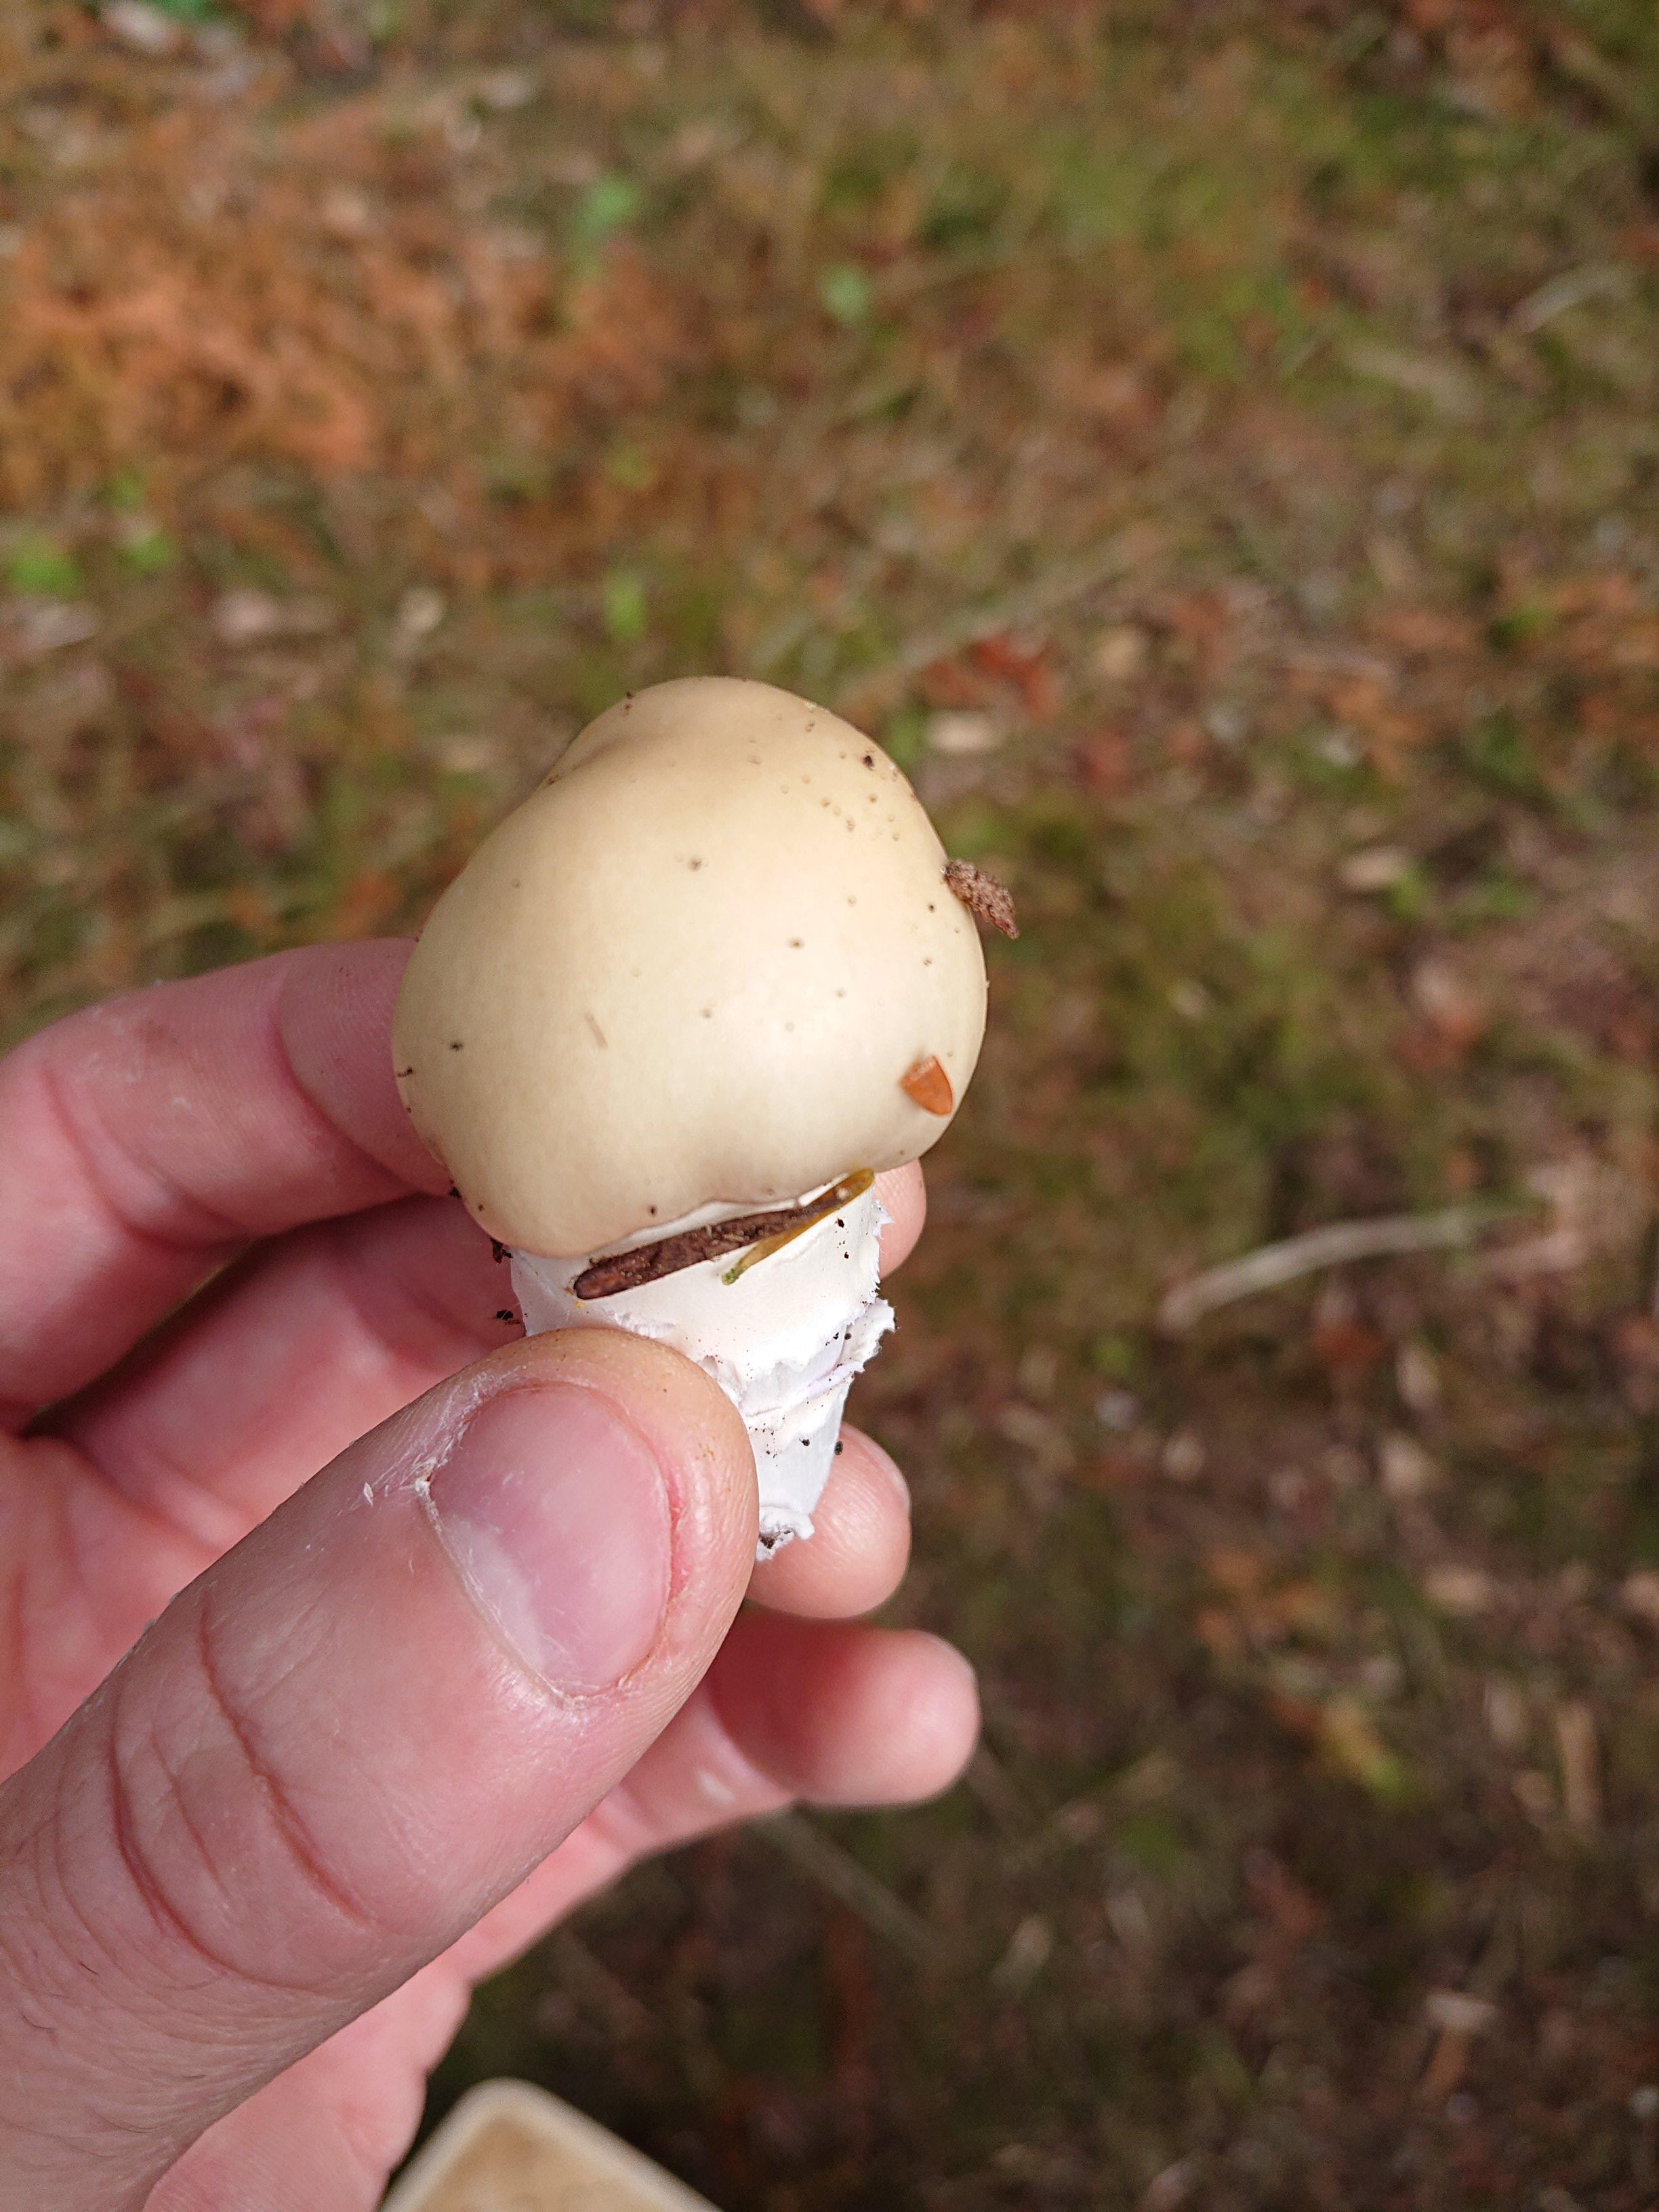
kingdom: Fungi
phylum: Basidiomycota
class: Agaricomycetes
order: Agaricales
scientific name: Agaricales
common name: champignonordenen
